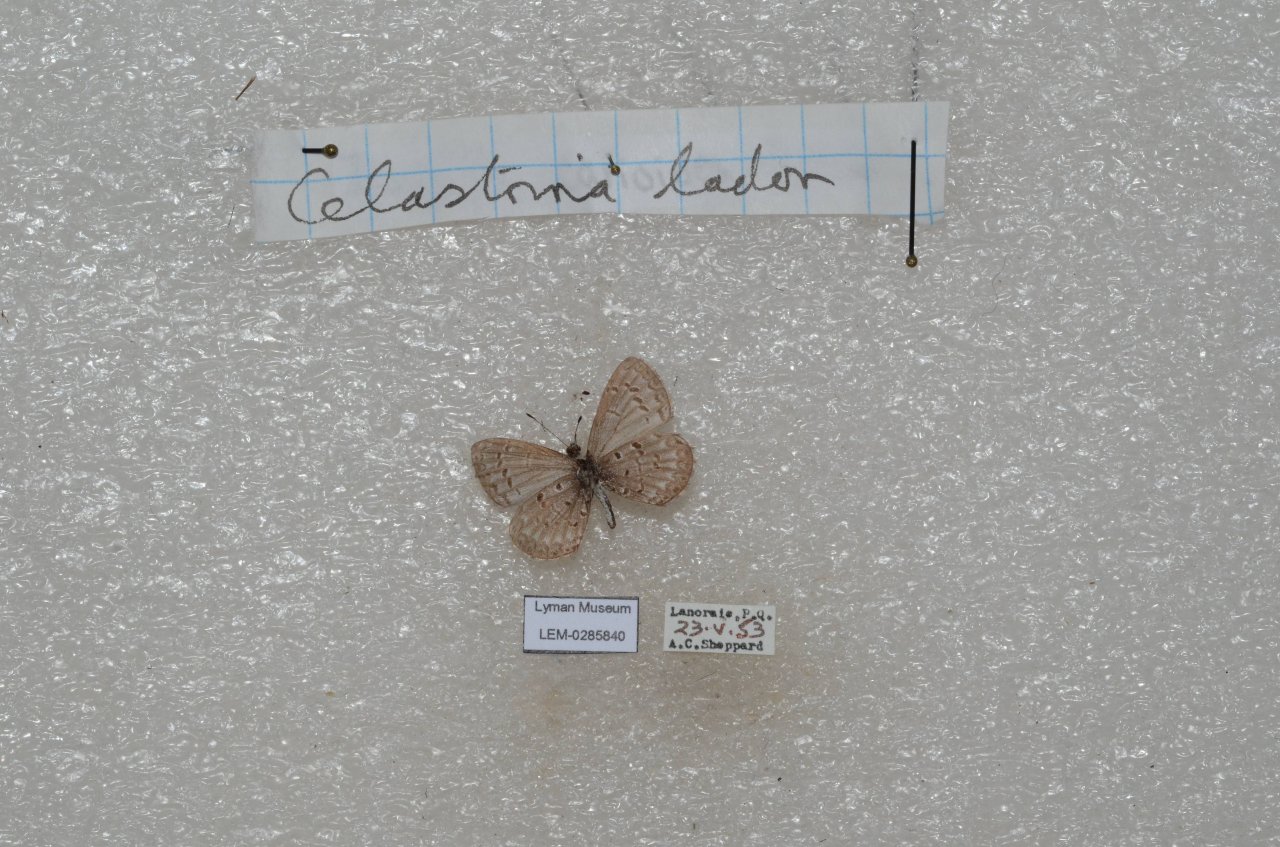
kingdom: Animalia
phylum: Arthropoda
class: Insecta
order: Lepidoptera
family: Lycaenidae
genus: Celastrina
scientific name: Celastrina lucia
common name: Northern Spring Azure
